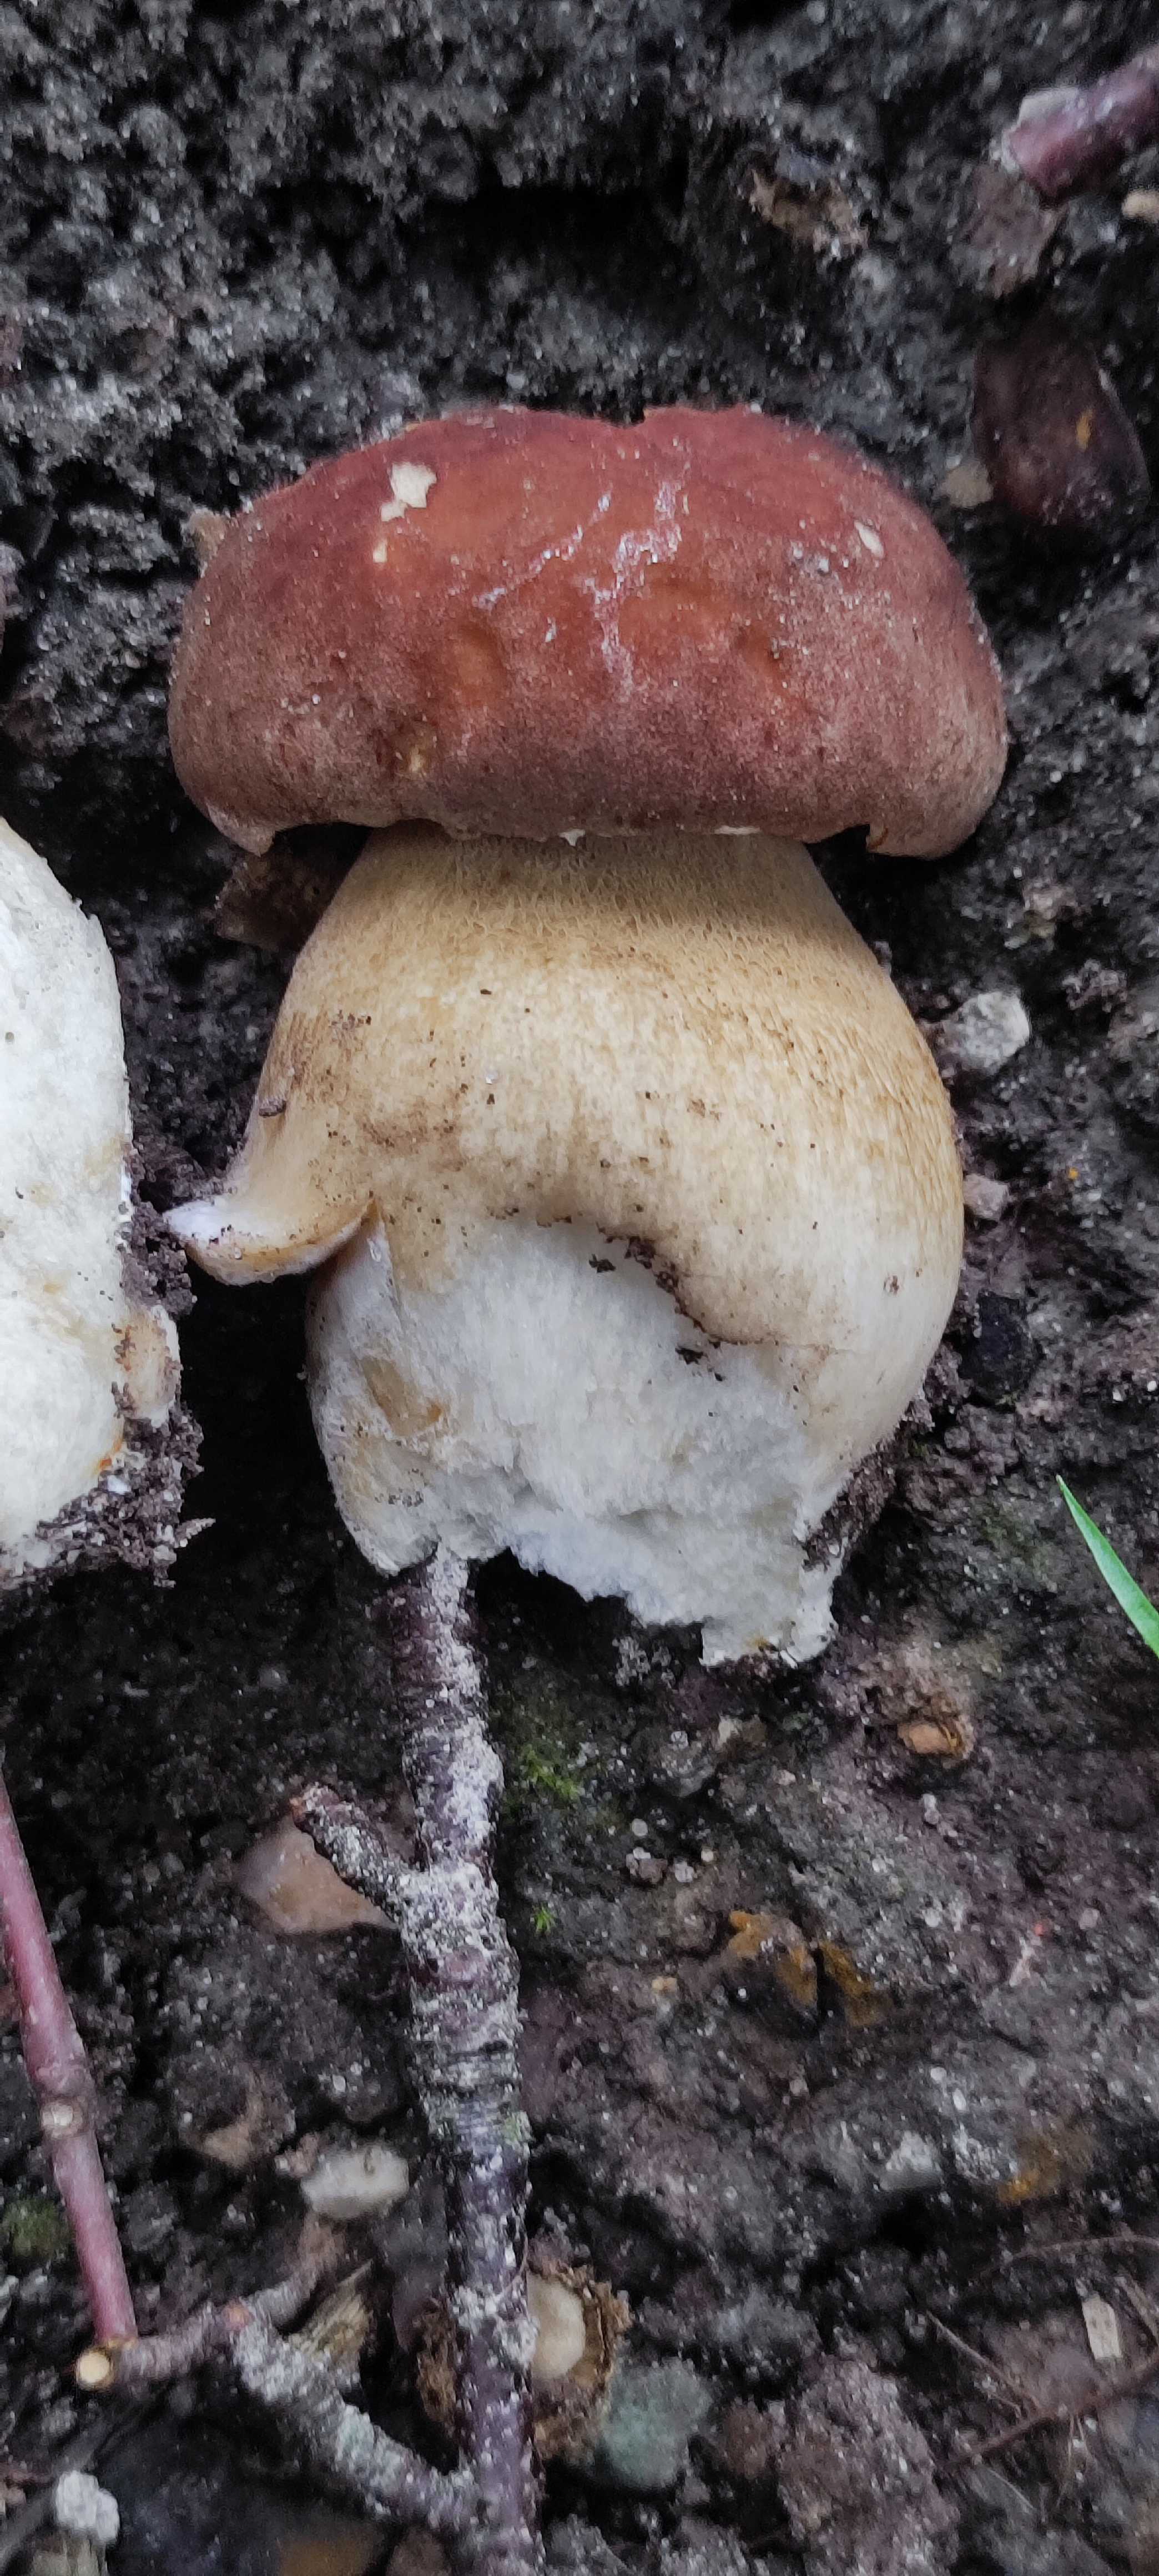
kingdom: Fungi
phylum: Basidiomycota
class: Agaricomycetes
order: Boletales
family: Boletaceae
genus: Boletus
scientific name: Boletus edulis
